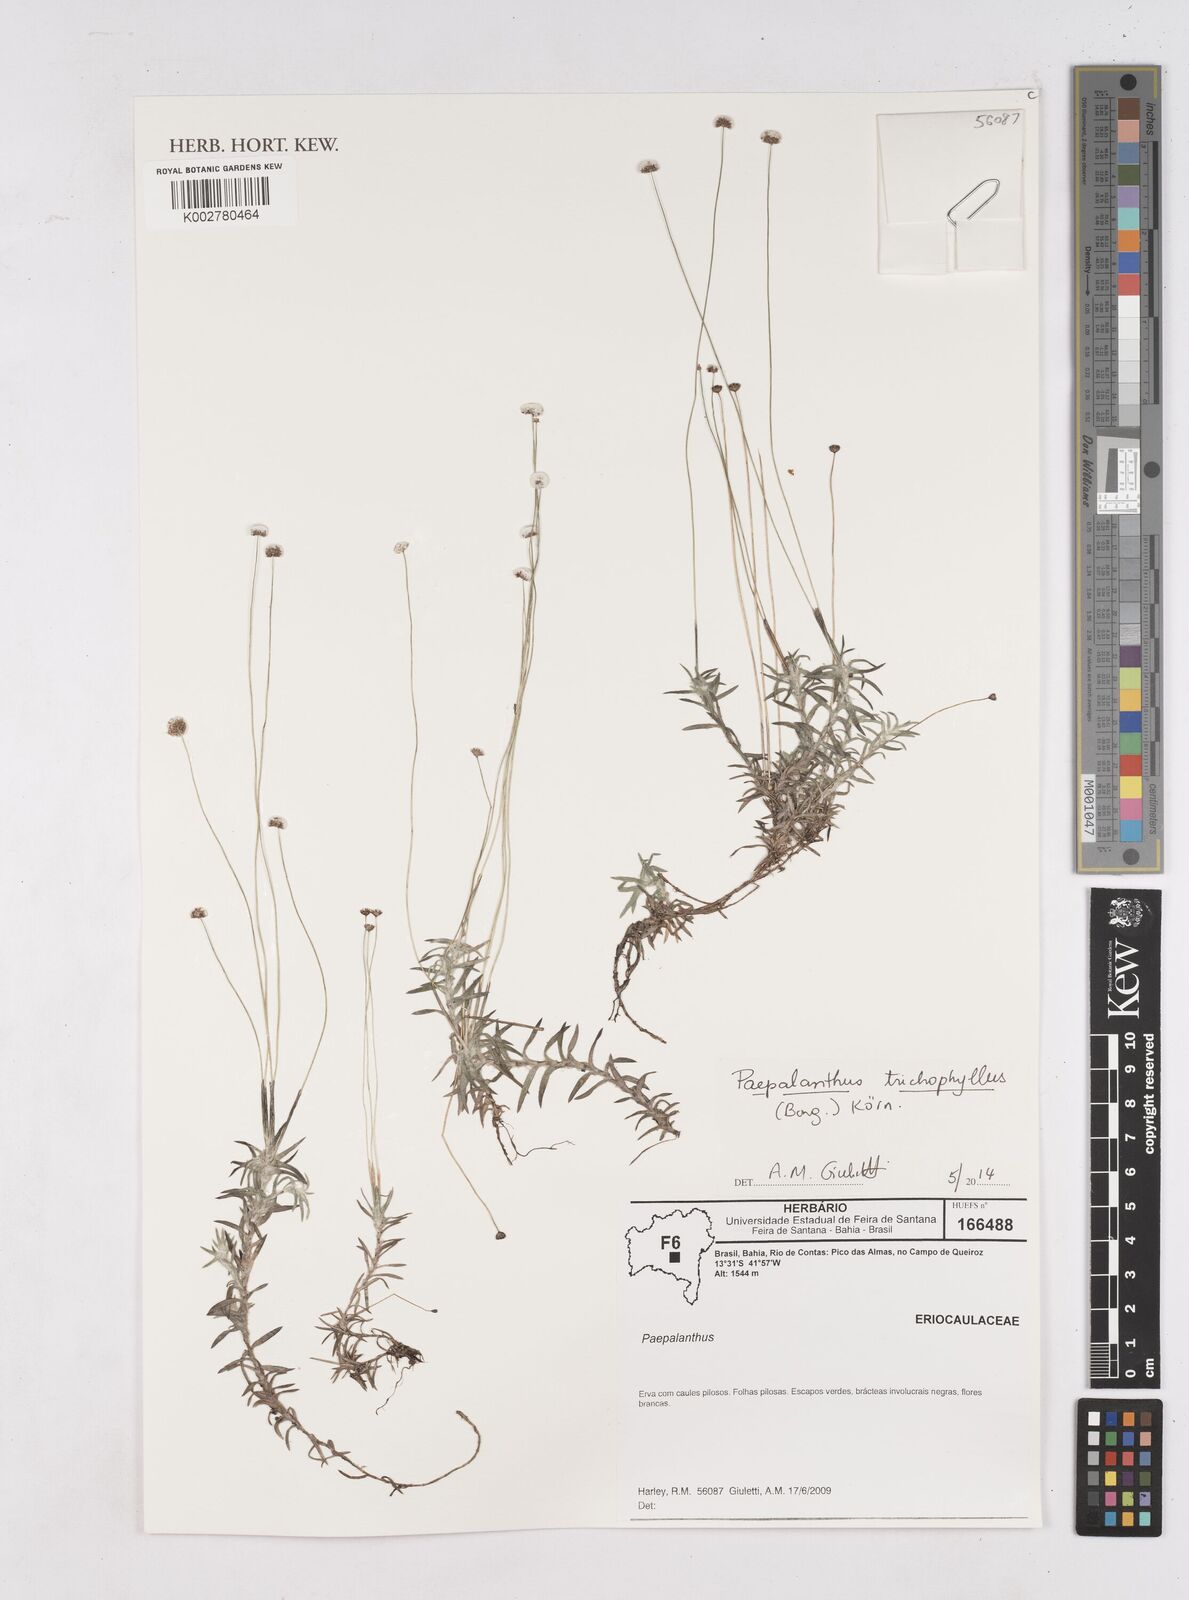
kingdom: Plantae
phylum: Tracheophyta
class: Liliopsida
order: Poales
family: Eriocaulaceae
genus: Paepalanthus
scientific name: Paepalanthus trichophyllus
